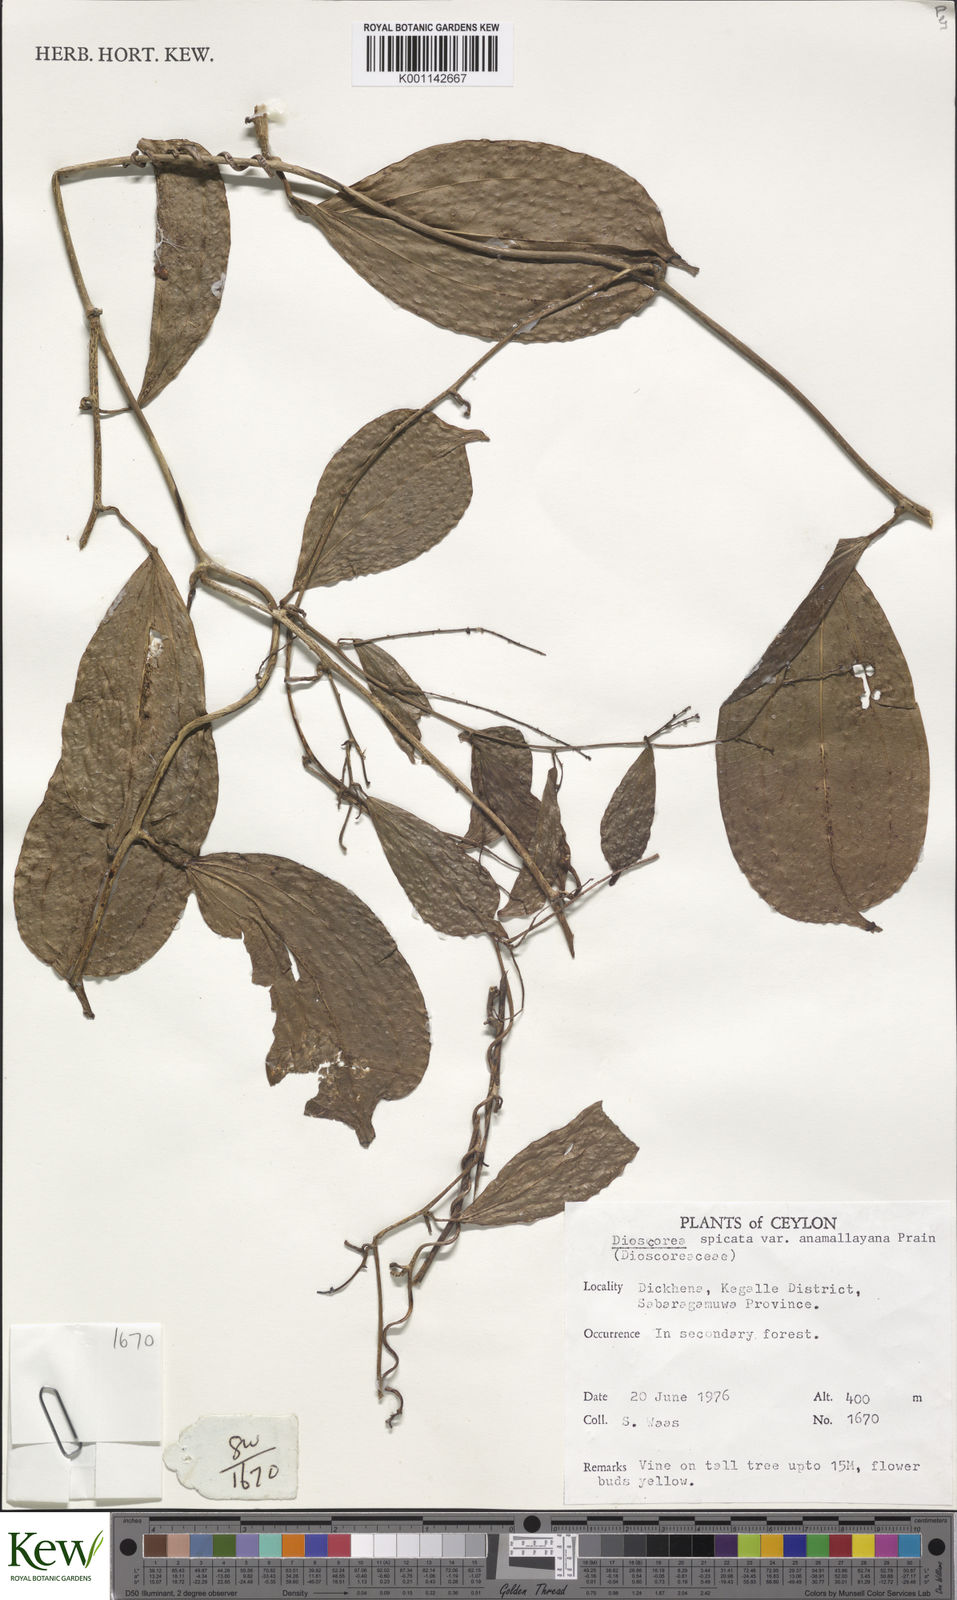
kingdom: Plantae
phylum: Tracheophyta
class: Liliopsida
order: Dioscoreales
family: Dioscoreaceae
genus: Dioscorea
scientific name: Dioscorea spicata
